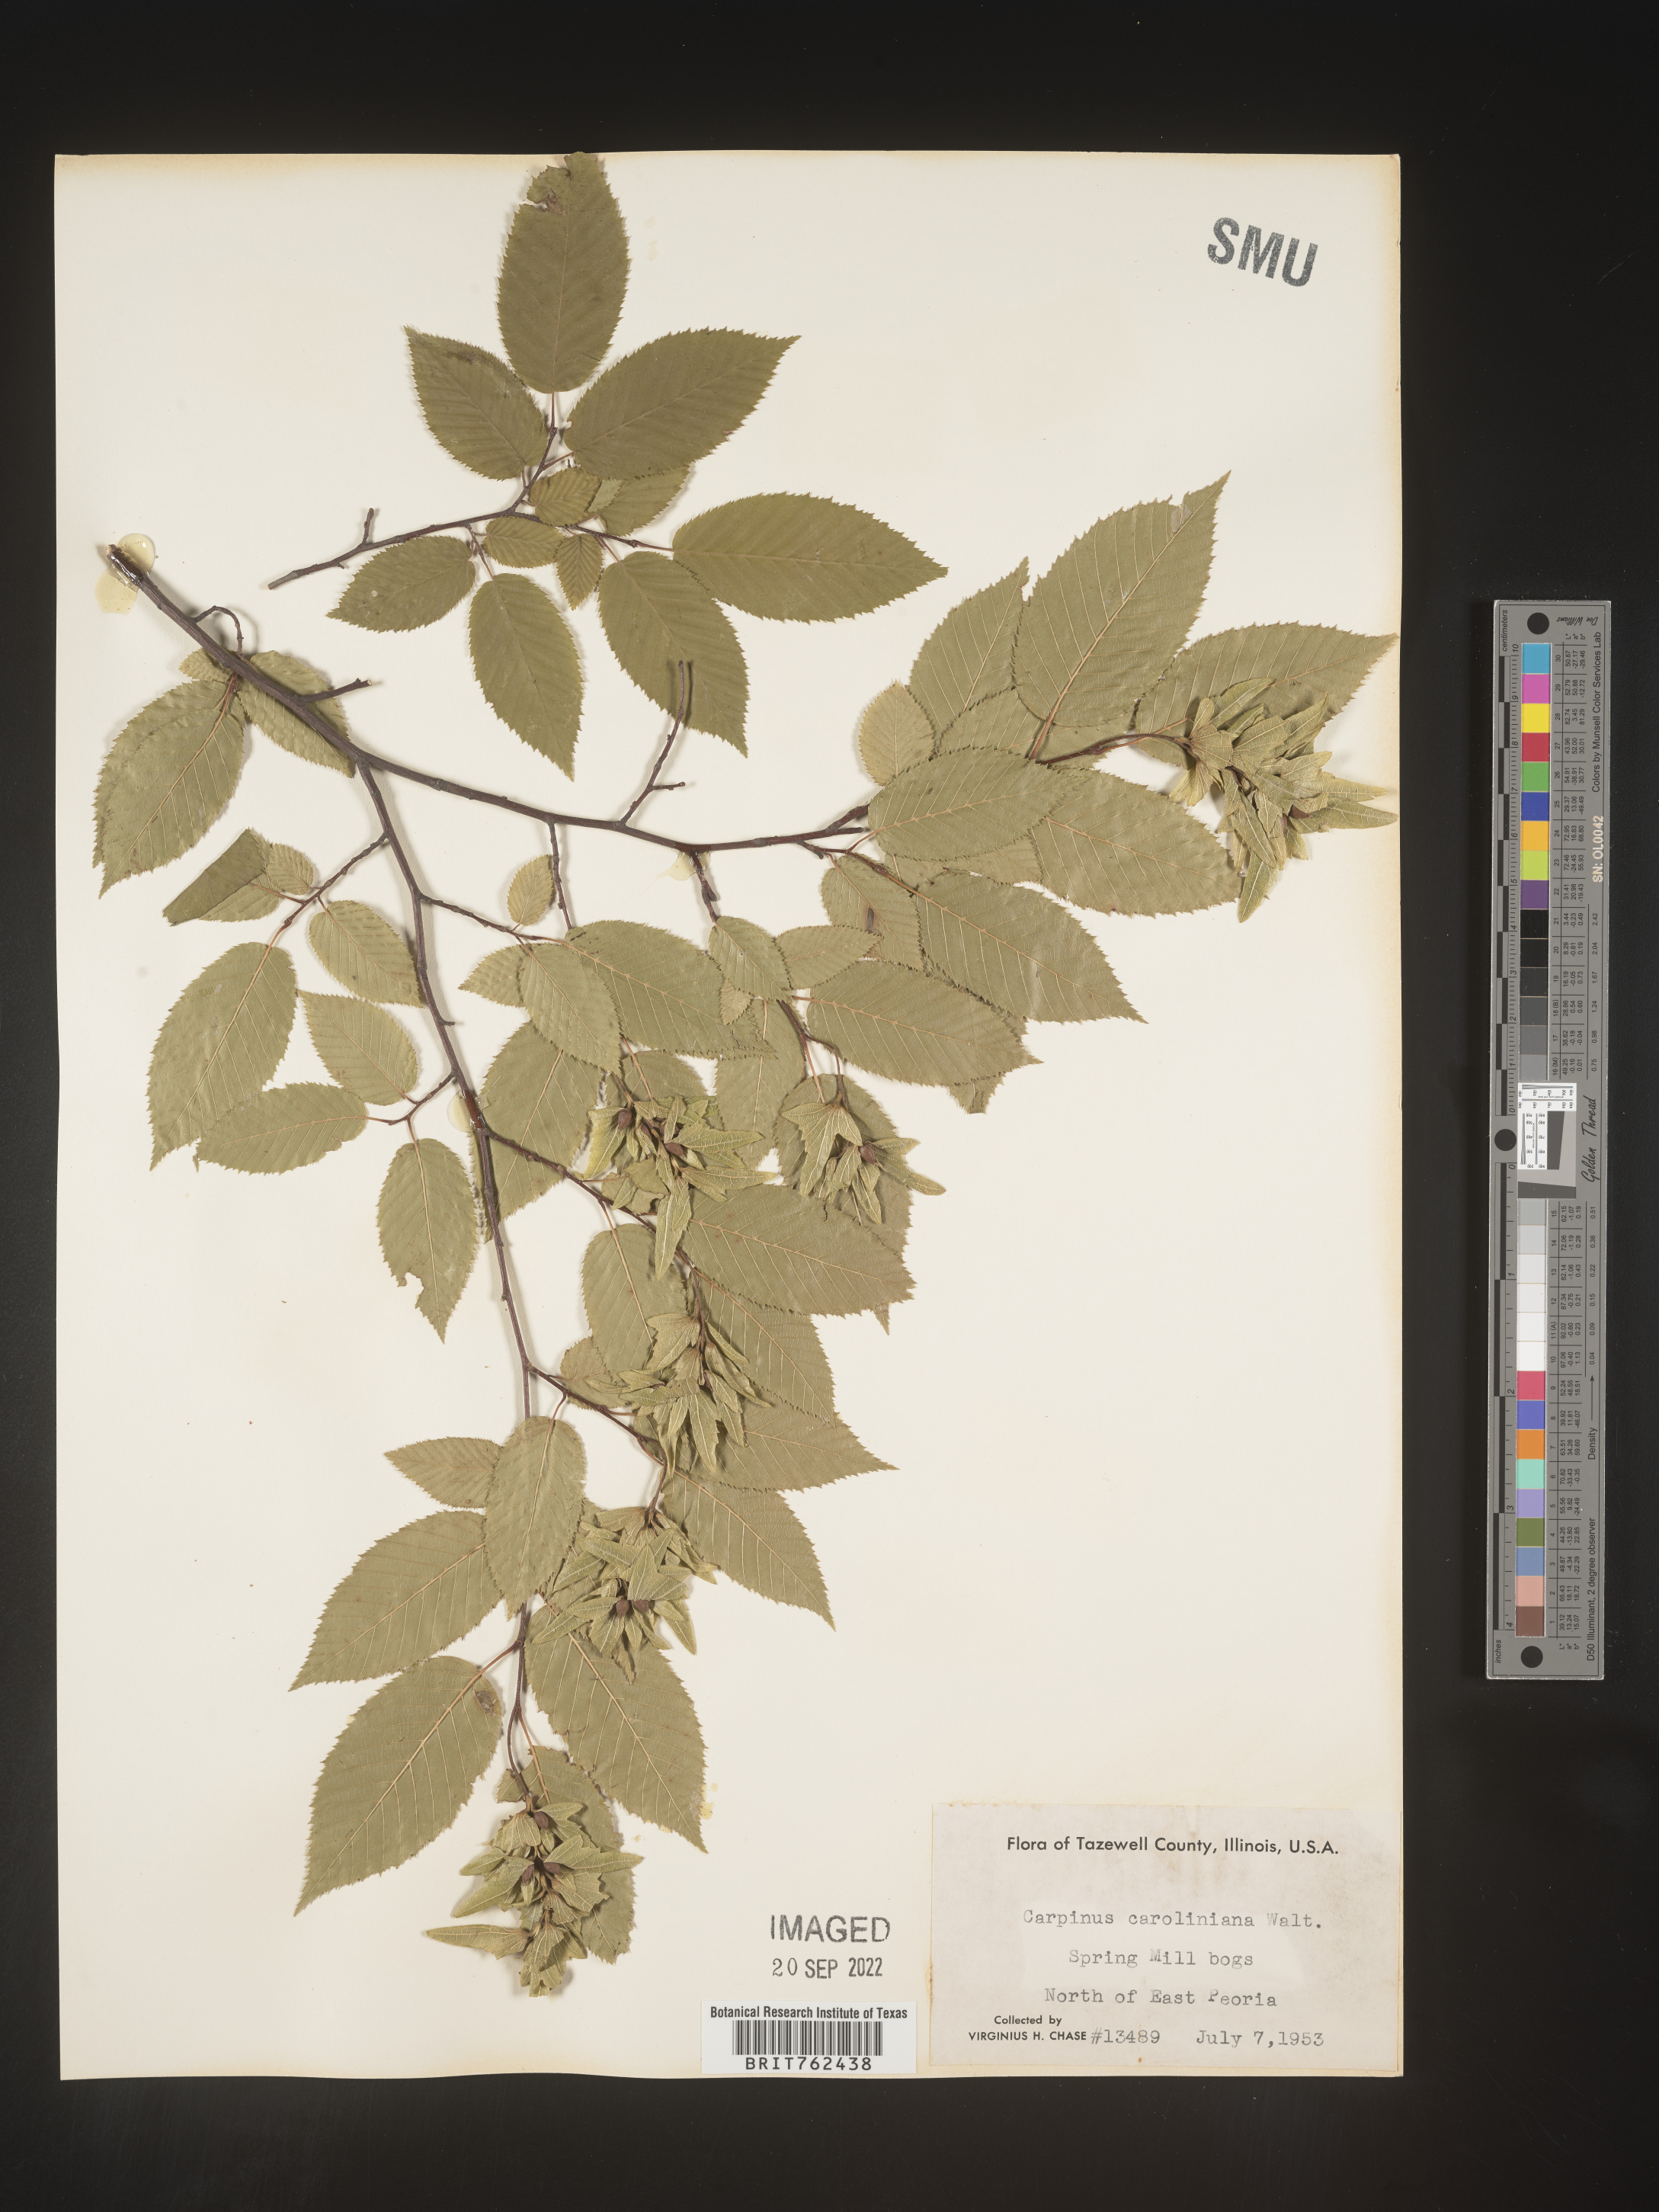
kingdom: Plantae
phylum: Tracheophyta
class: Magnoliopsida
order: Fagales
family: Betulaceae
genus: Carpinus
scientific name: Carpinus caroliniana
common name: American hornbeam
